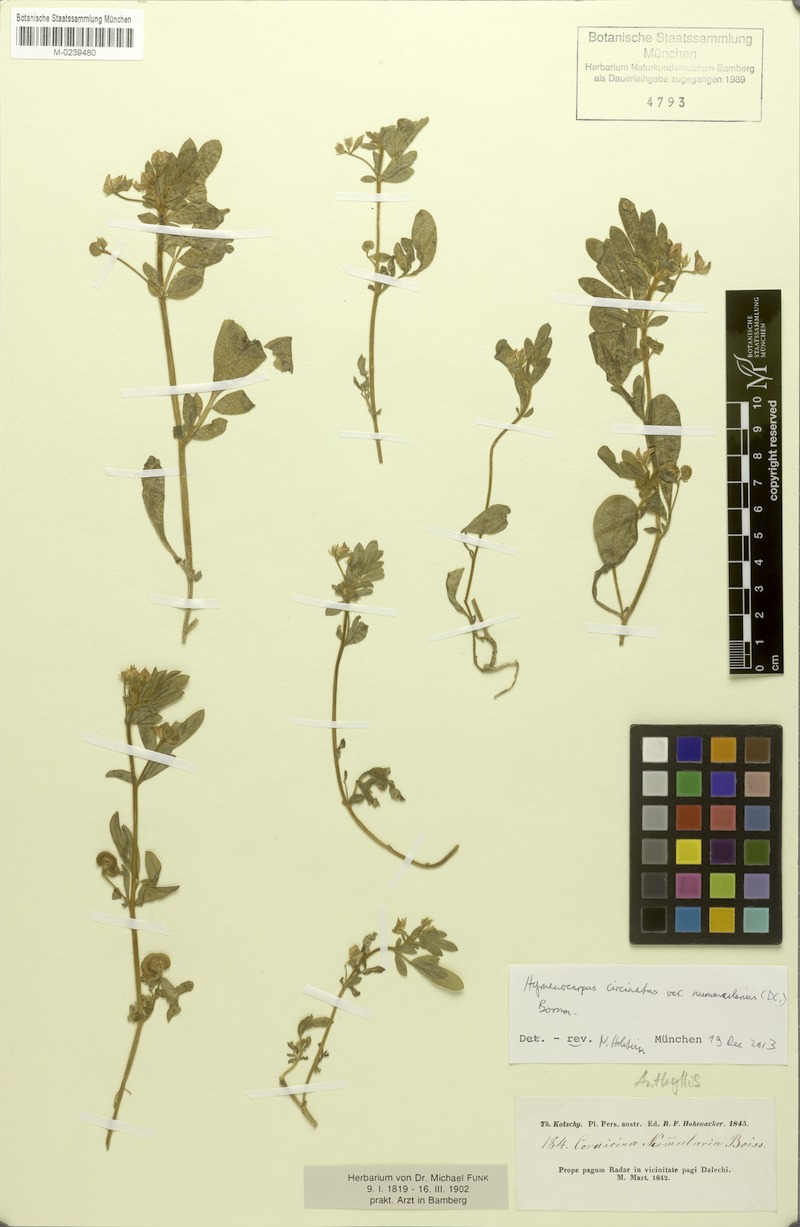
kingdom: Plantae
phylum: Tracheophyta
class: Magnoliopsida
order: Fabales
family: Fabaceae
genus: Anthyllis
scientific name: Anthyllis circinnata
